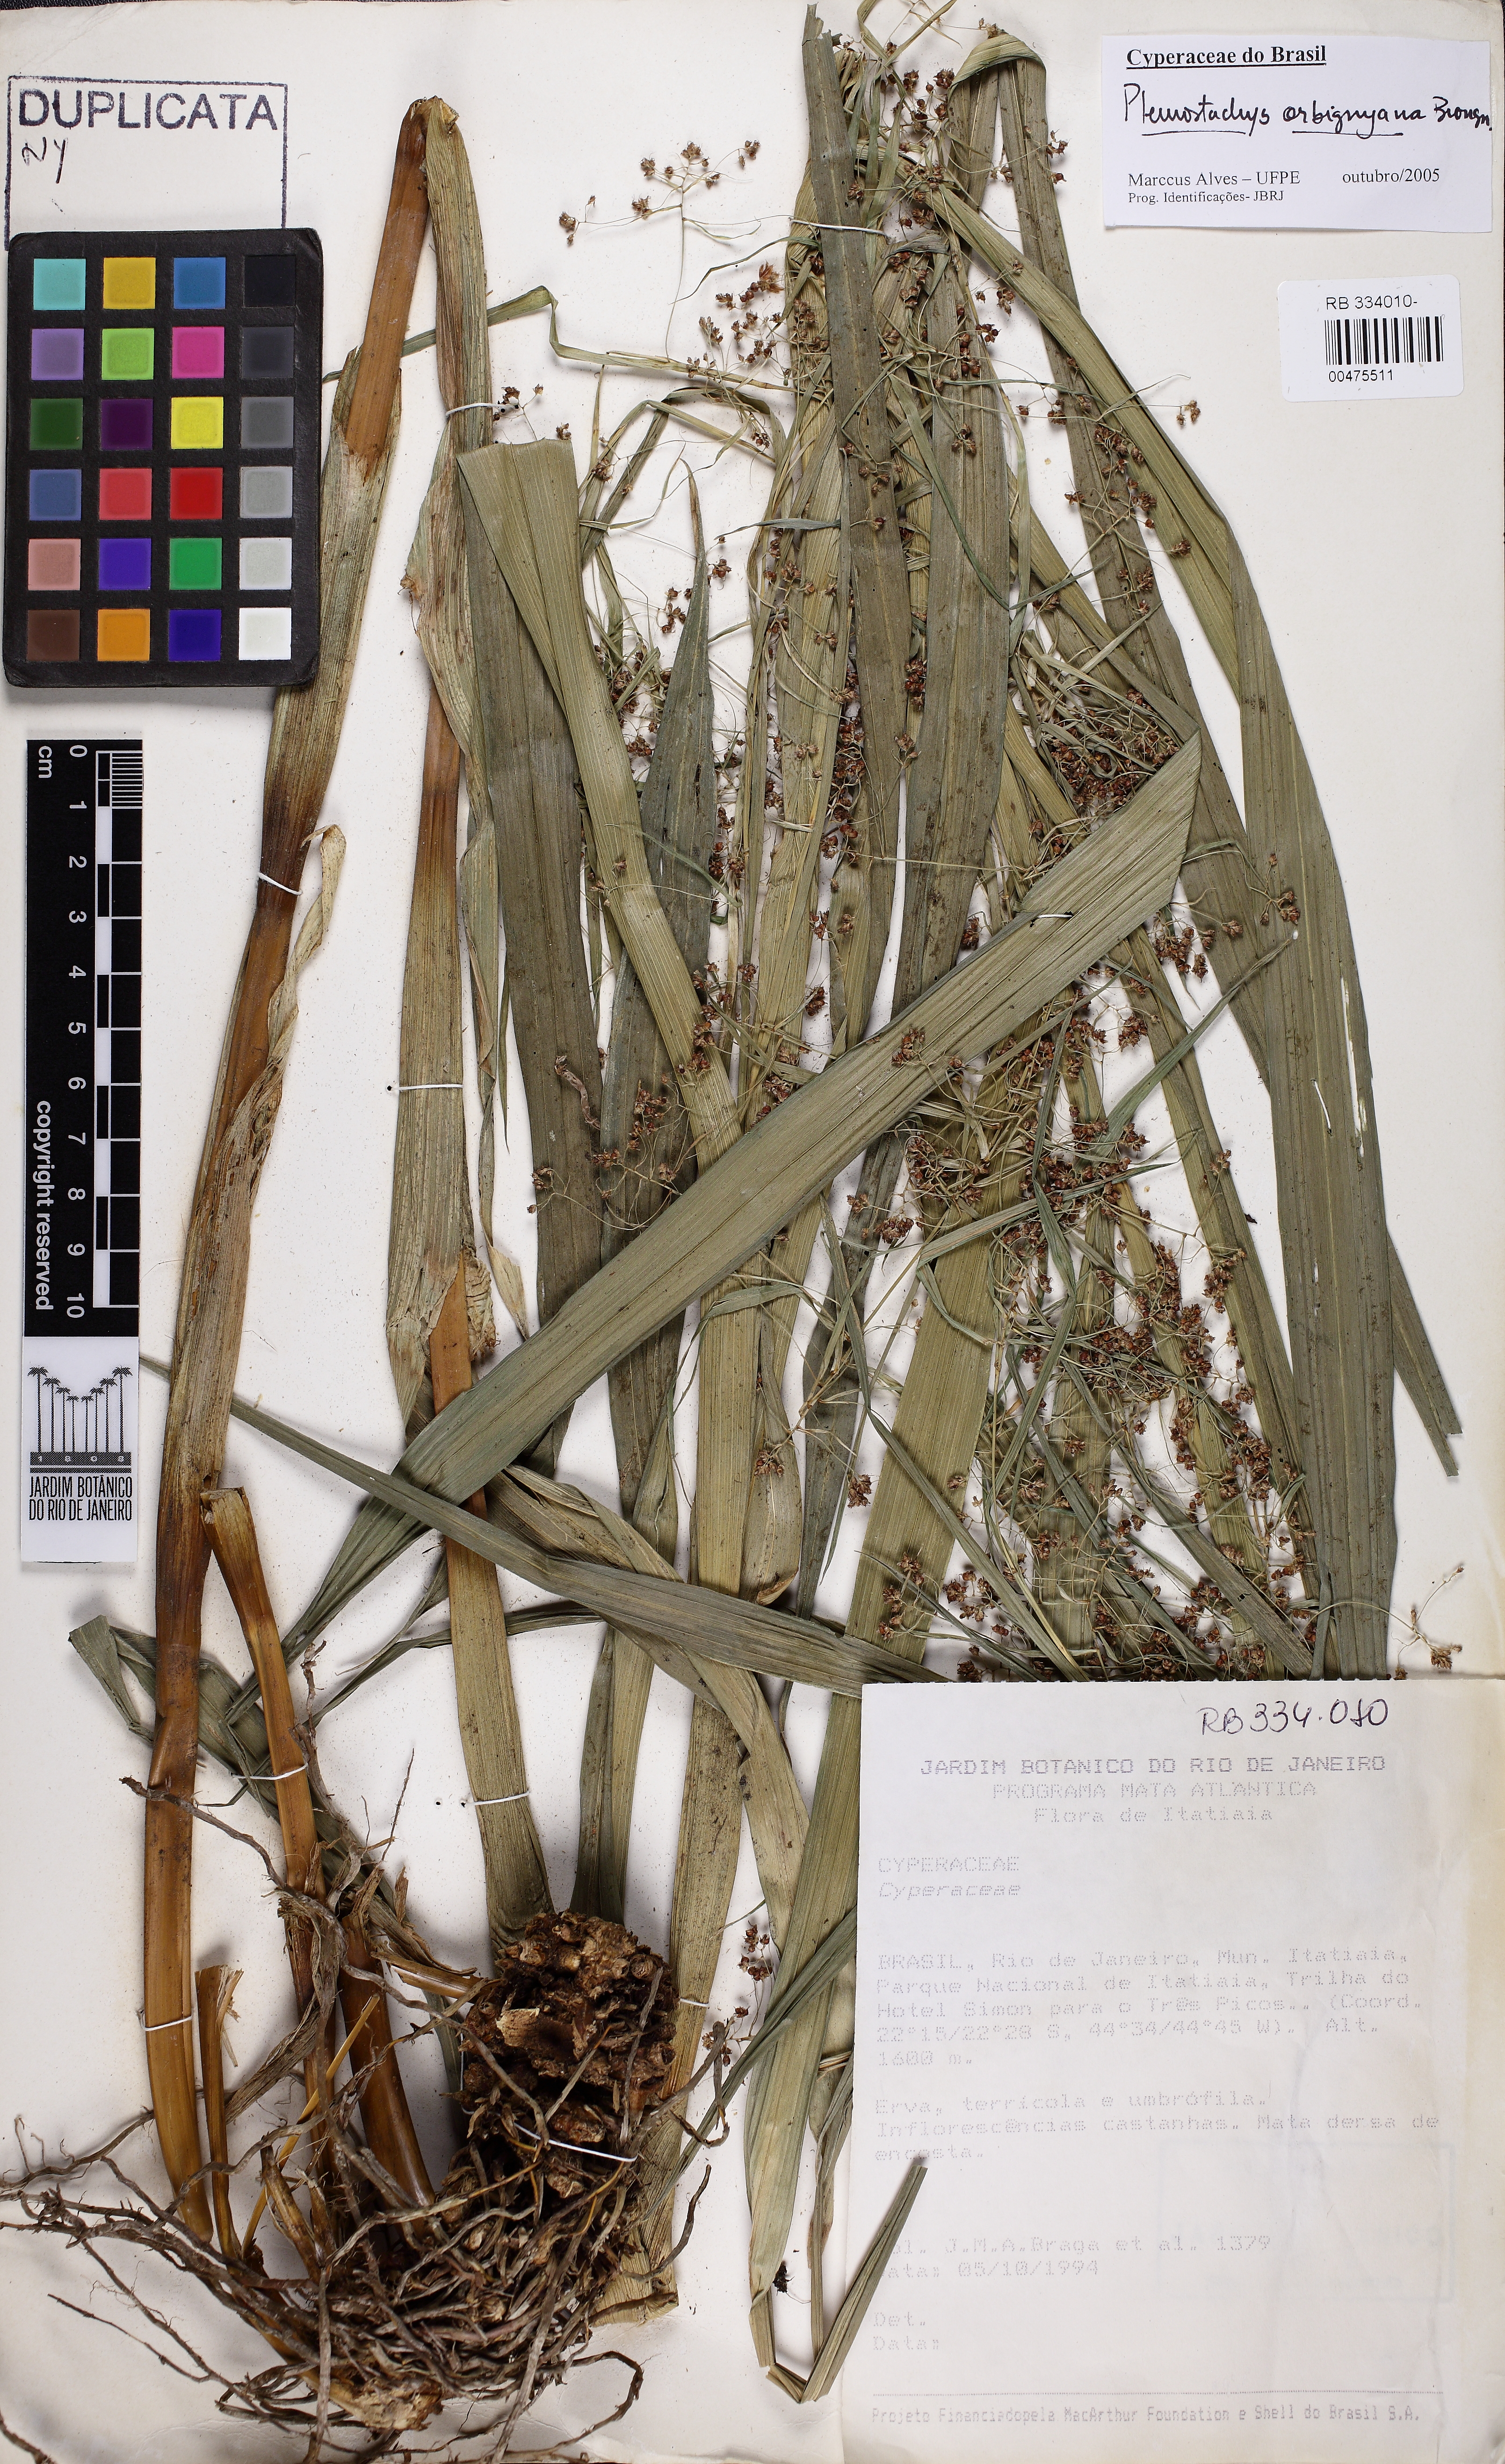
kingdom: Plantae
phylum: Tracheophyta
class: Liliopsida
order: Poales
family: Cyperaceae
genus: Rhynchospora
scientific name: Rhynchospora orbignyana
